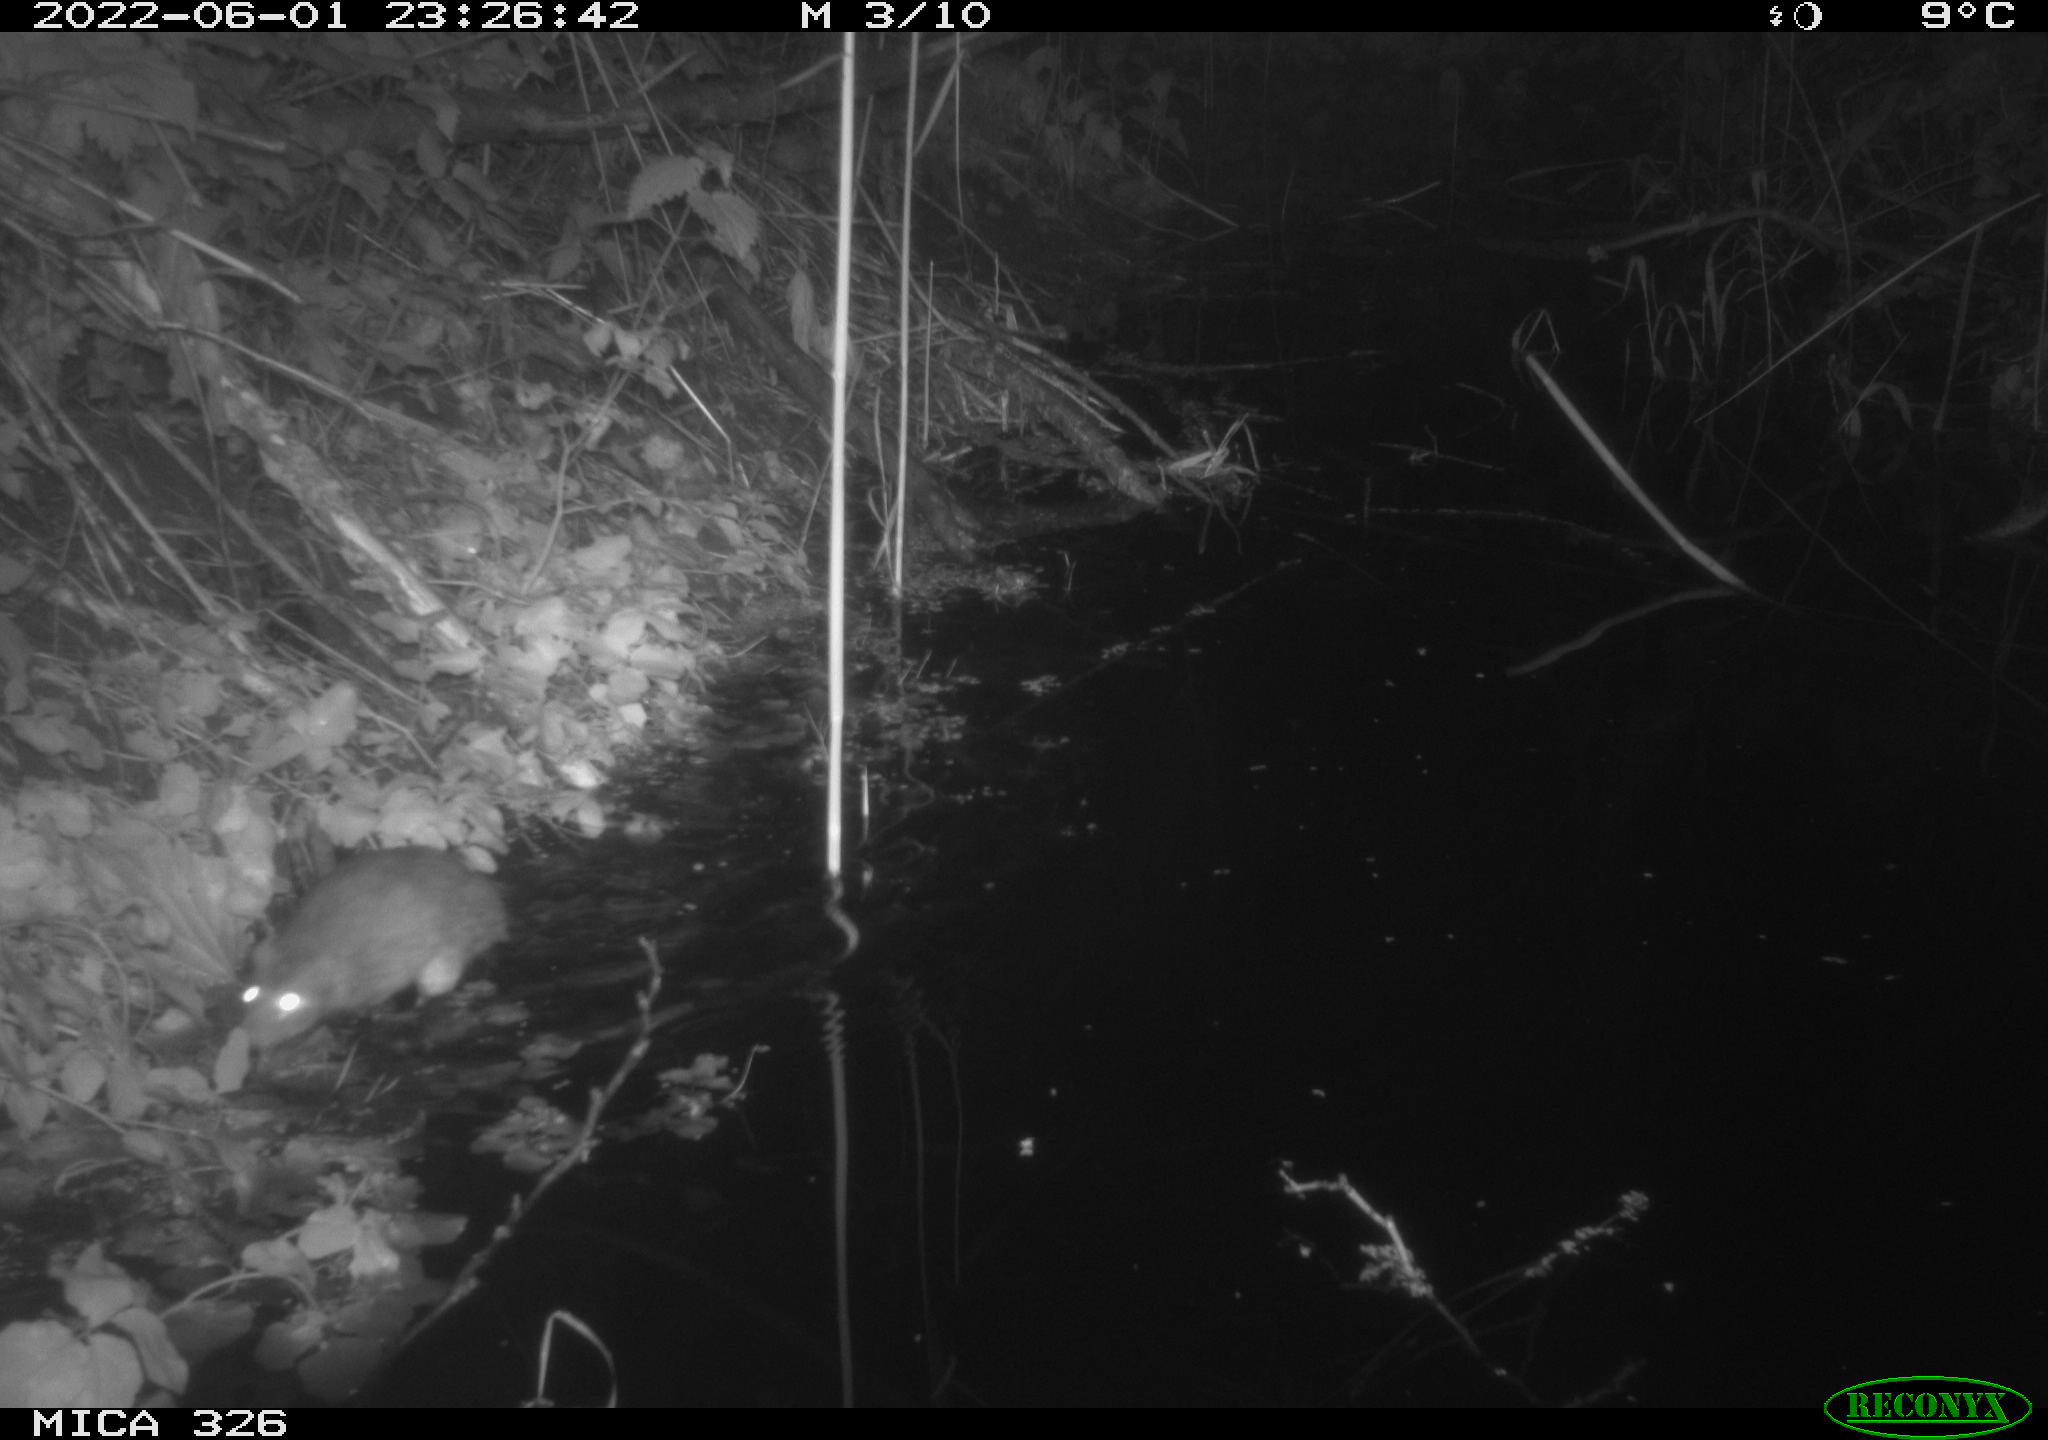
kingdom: Animalia
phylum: Chordata
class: Mammalia
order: Rodentia
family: Muridae
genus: Rattus
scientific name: Rattus norvegicus
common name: Brown rat
